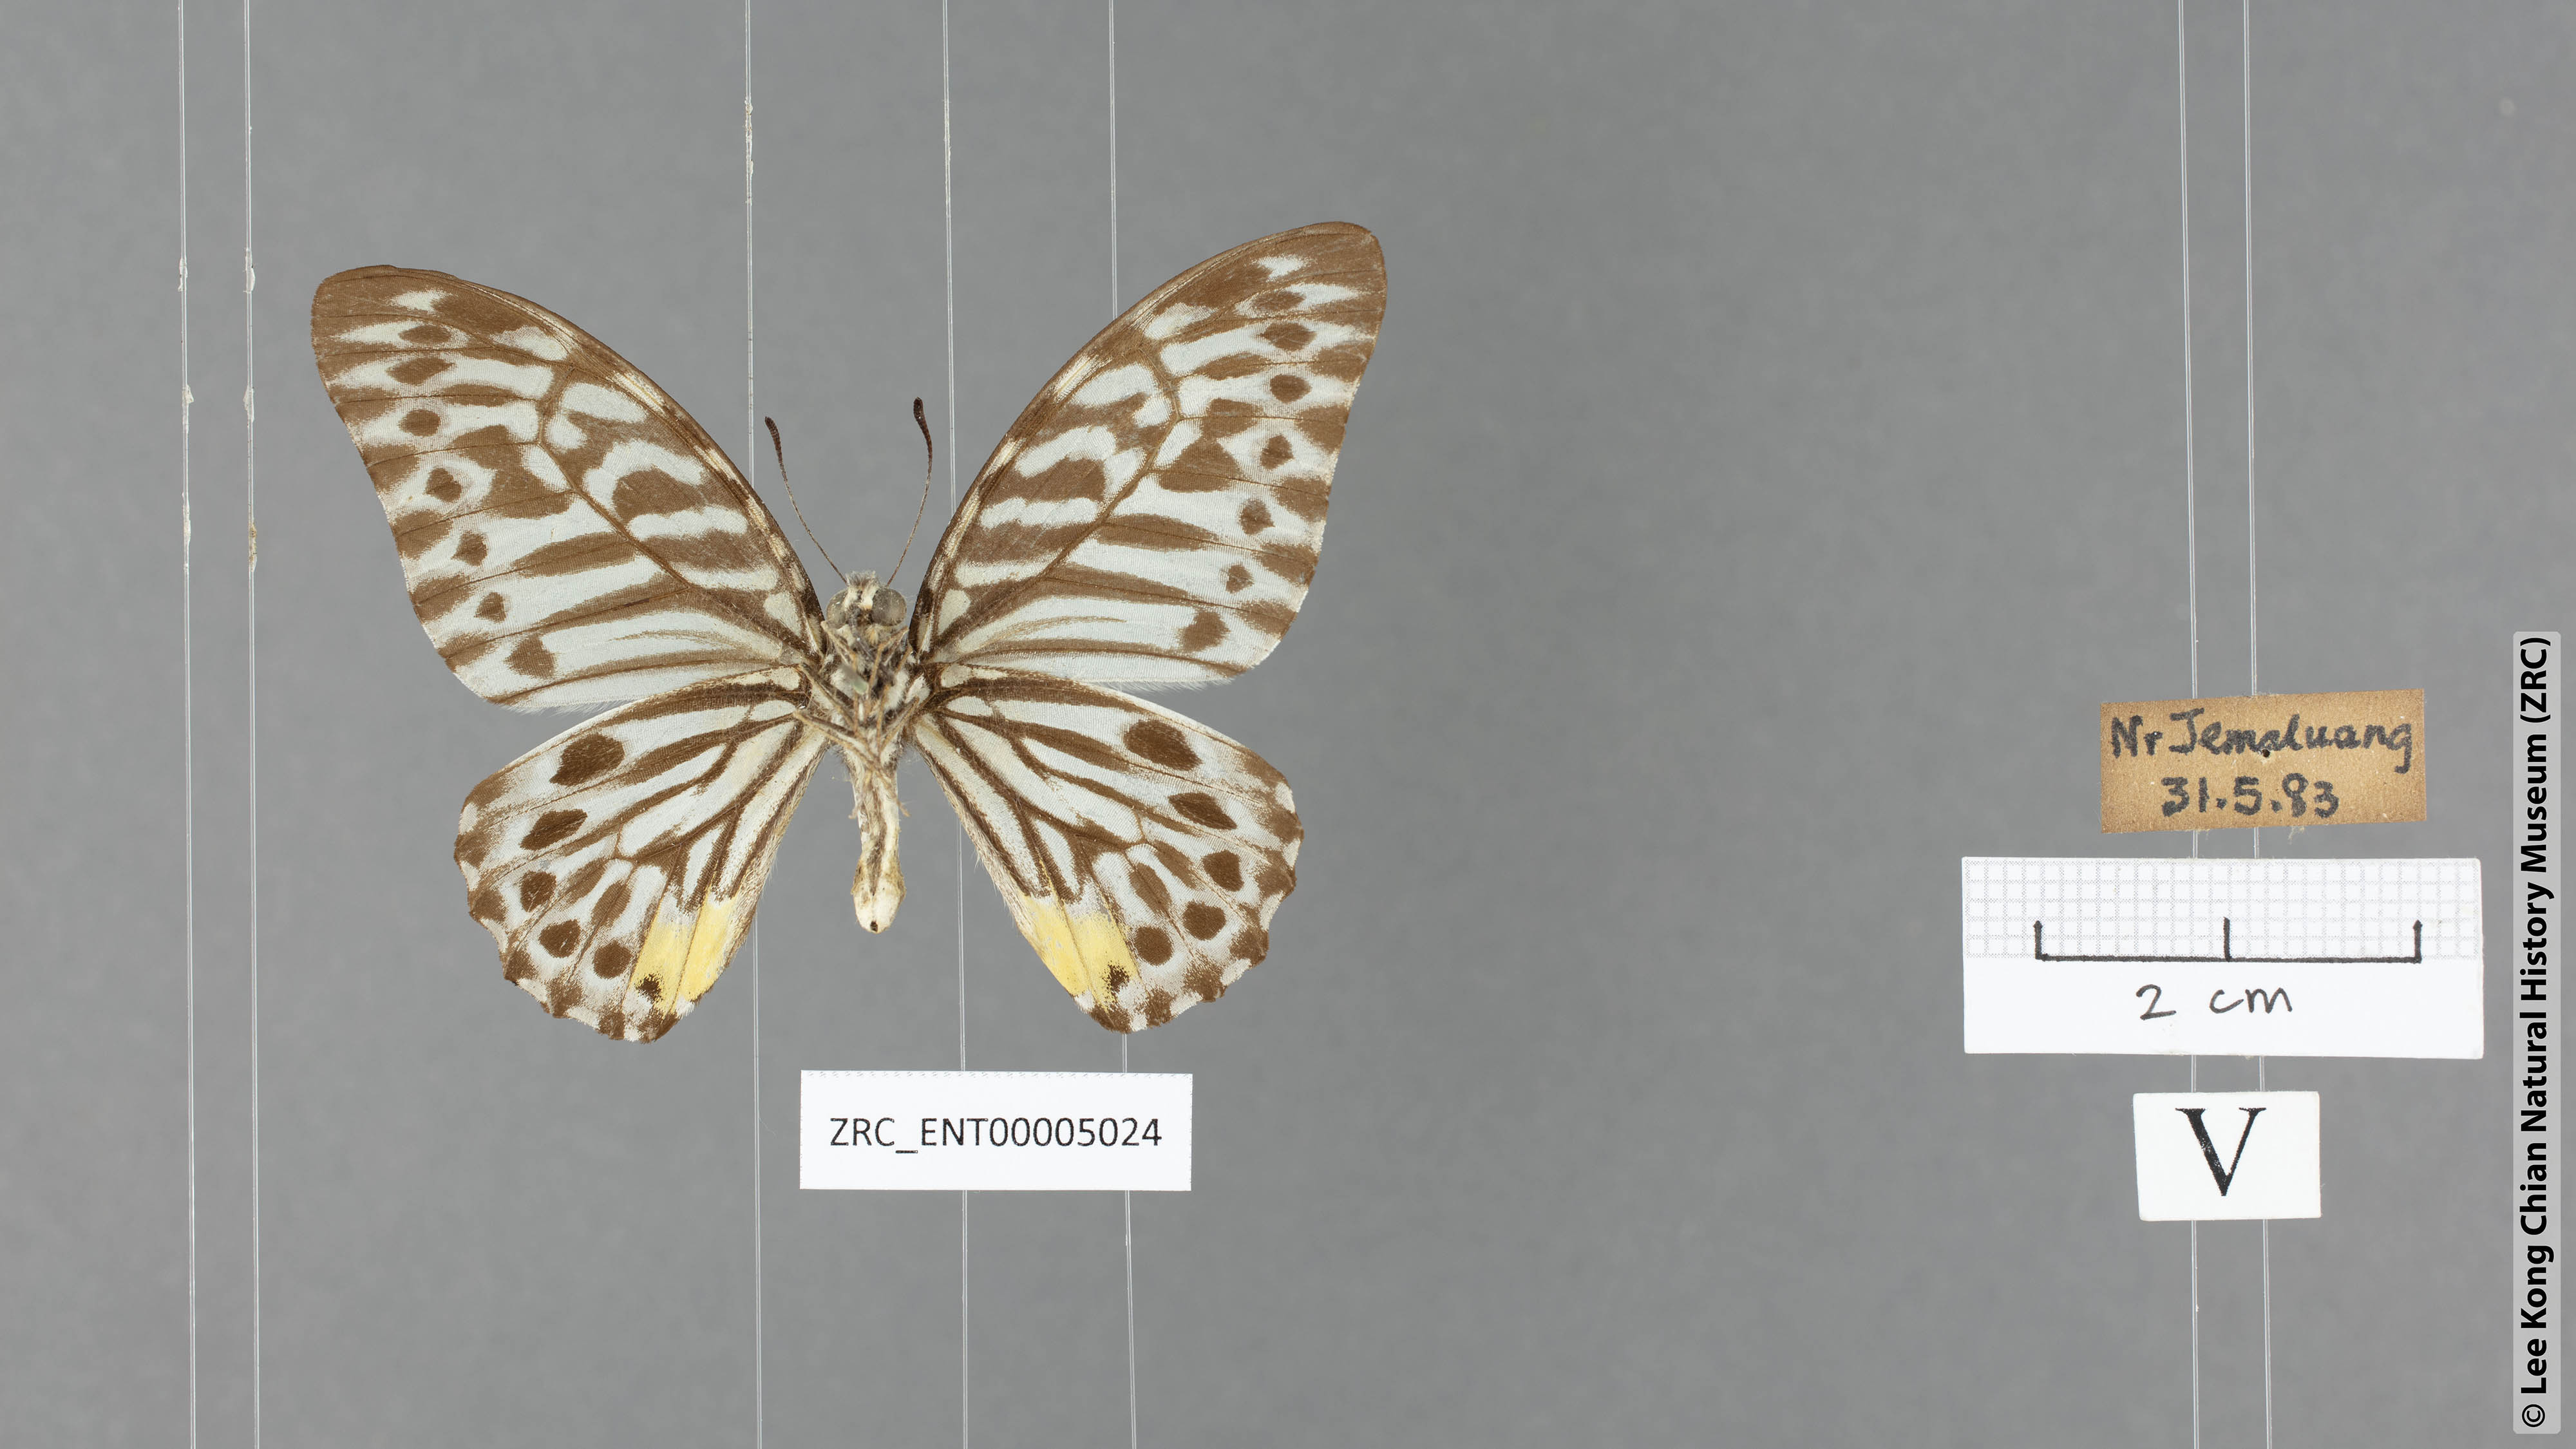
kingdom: Animalia
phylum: Arthropoda
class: Insecta
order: Lepidoptera
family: Papilionidae
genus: Graphium
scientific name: Graphium delesserti
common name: Malayan zebra
